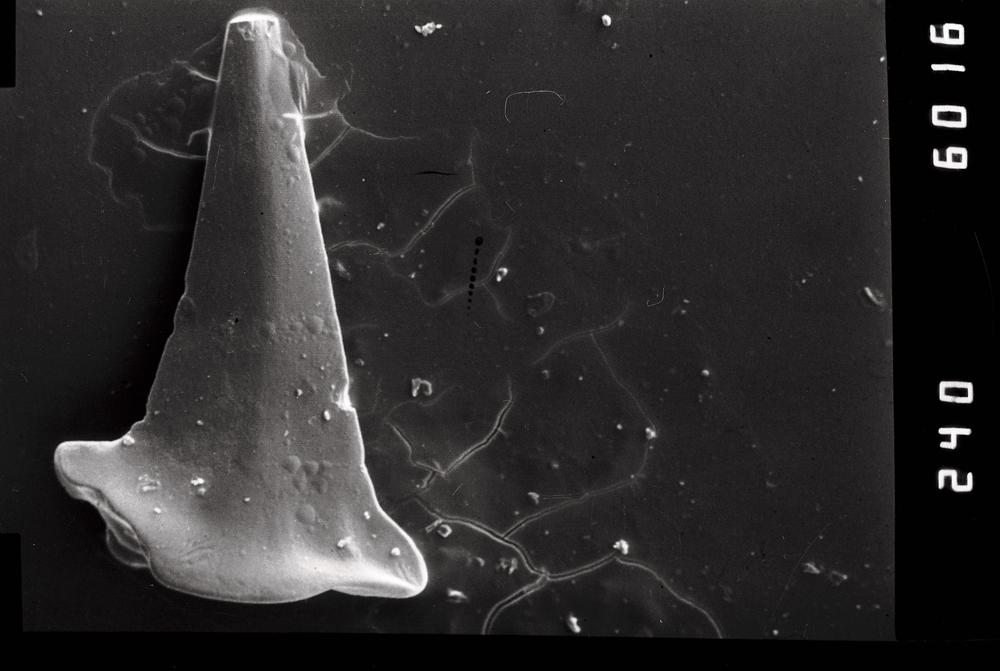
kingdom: Animalia
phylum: Annelida
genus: Paltodus
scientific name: Paltodus subaequalis
